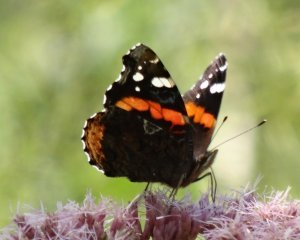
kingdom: Animalia
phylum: Arthropoda
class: Insecta
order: Lepidoptera
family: Nymphalidae
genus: Vanessa
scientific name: Vanessa atalanta
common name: Red Admiral
